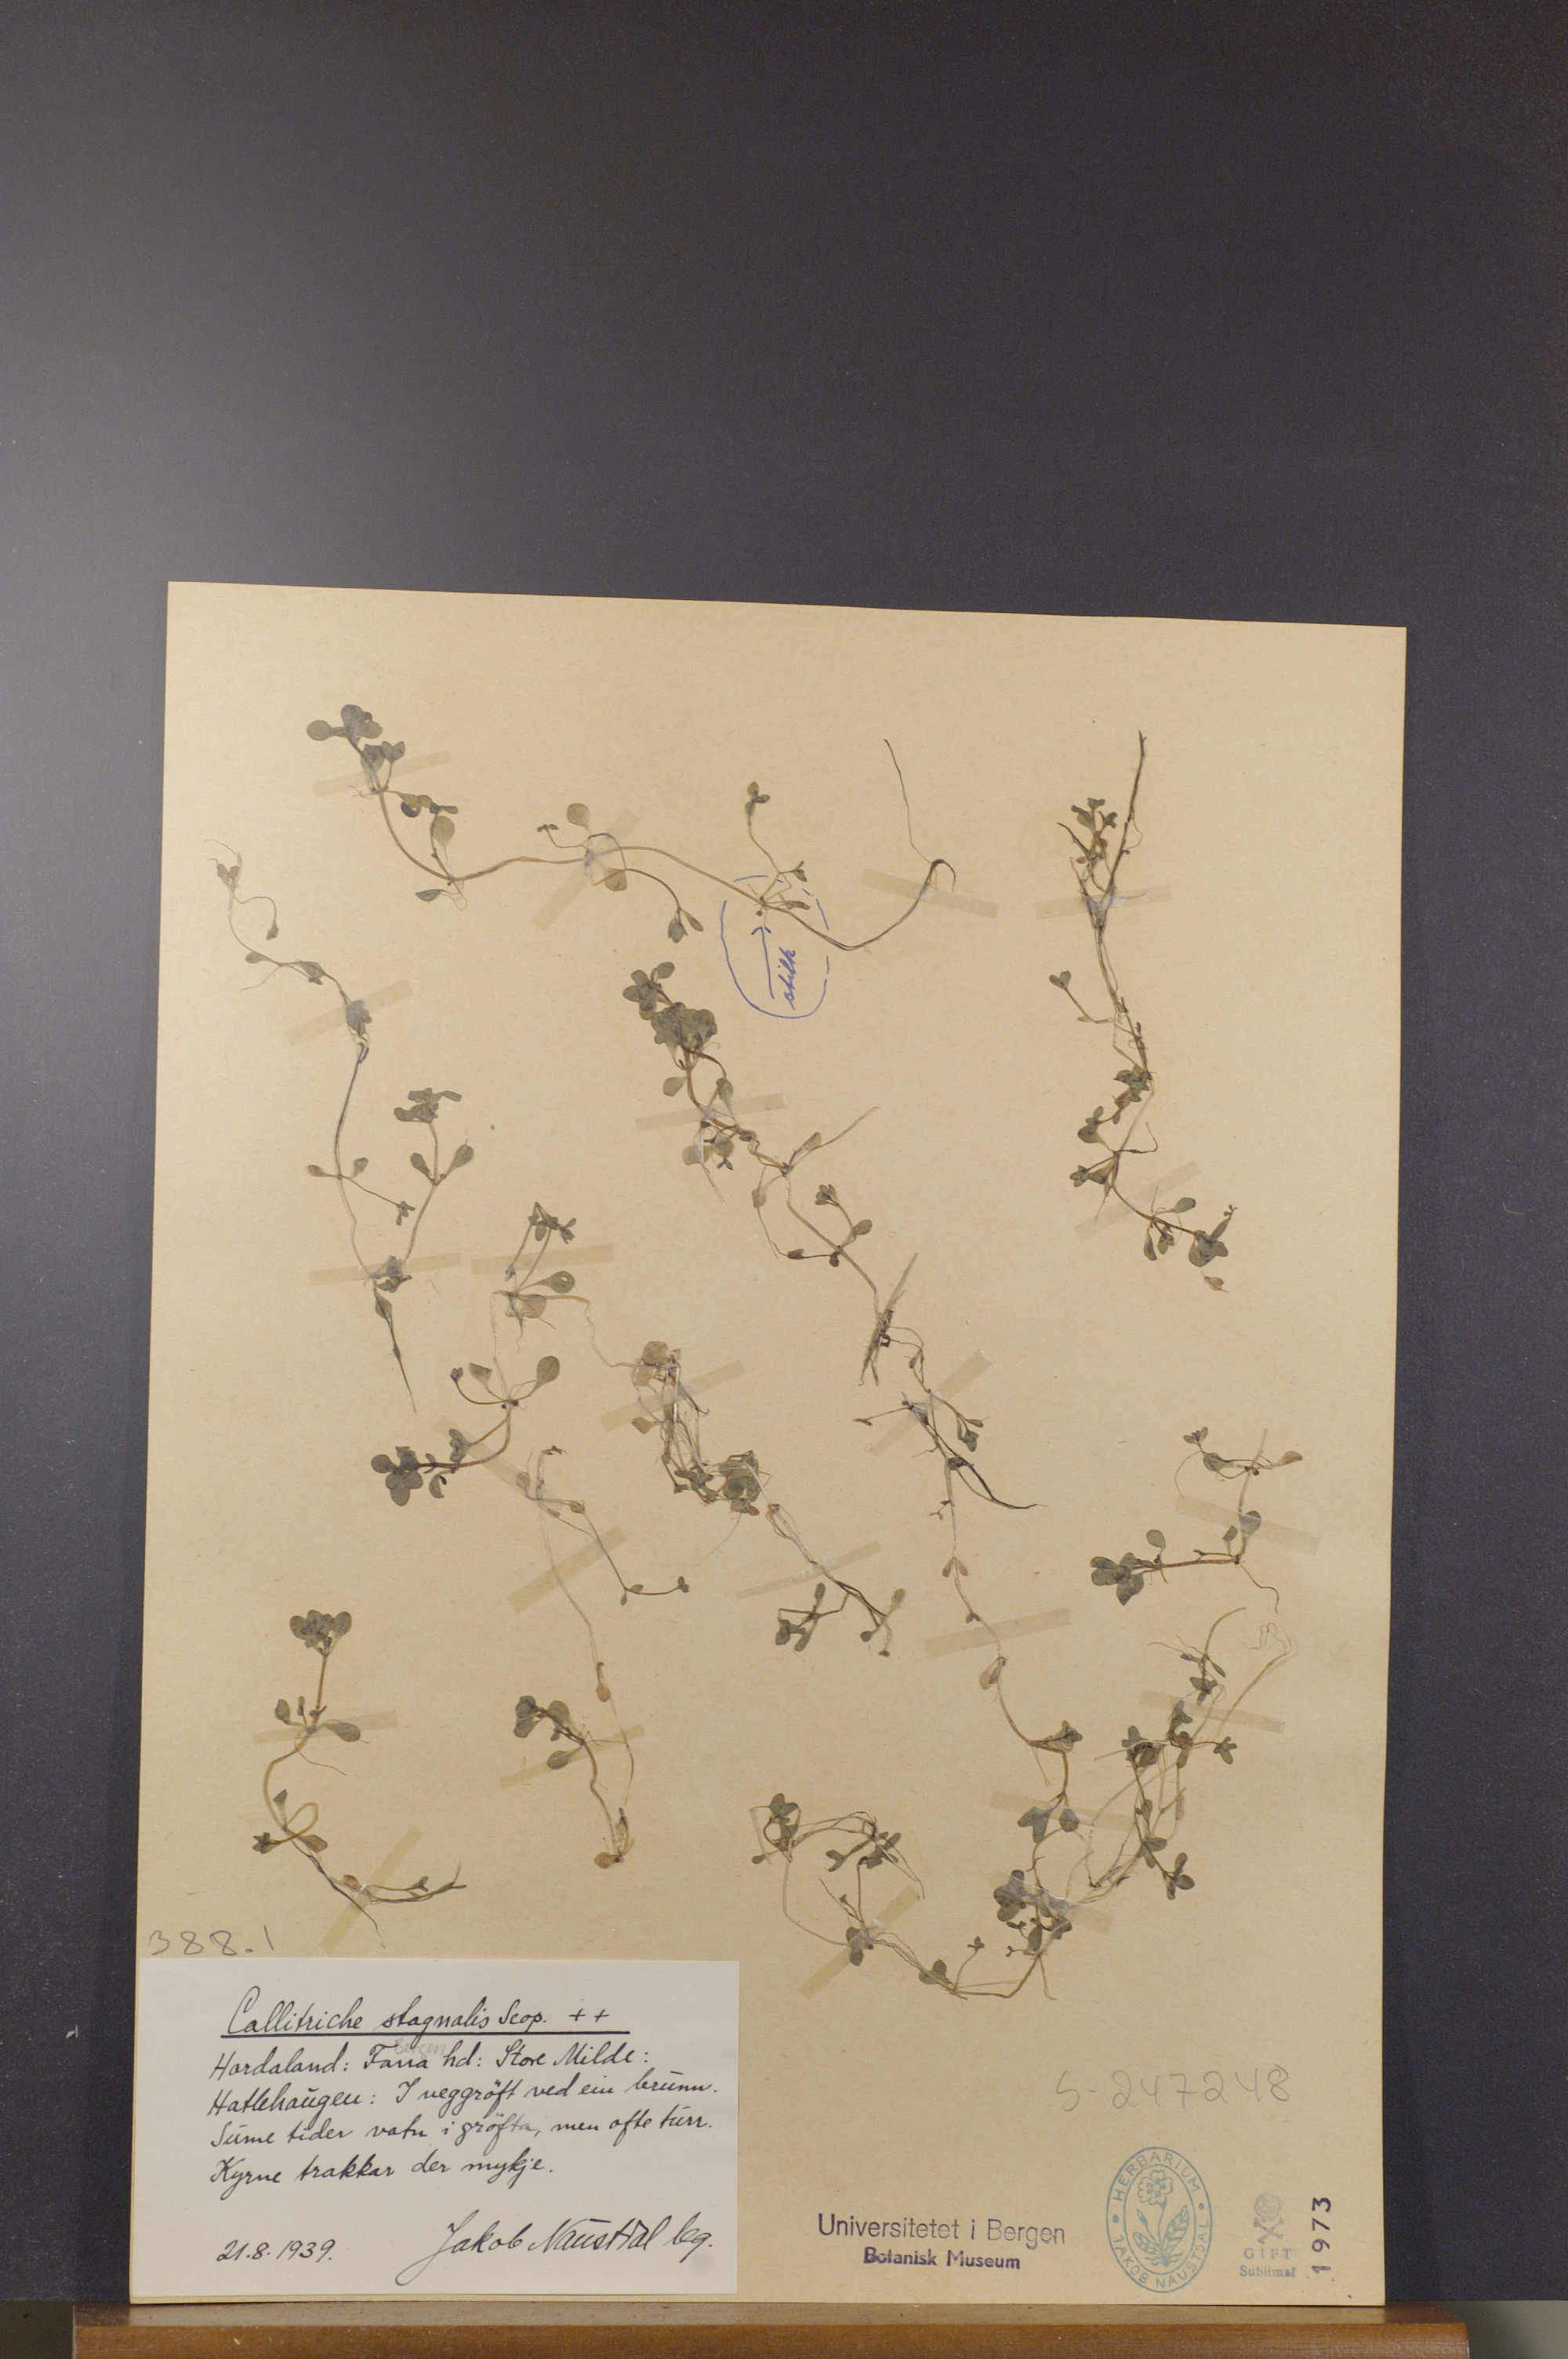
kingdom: Plantae
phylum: Tracheophyta
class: Magnoliopsida
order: Lamiales
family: Plantaginaceae
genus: Callitriche
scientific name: Callitriche stagnalis
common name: Common water-starwort
